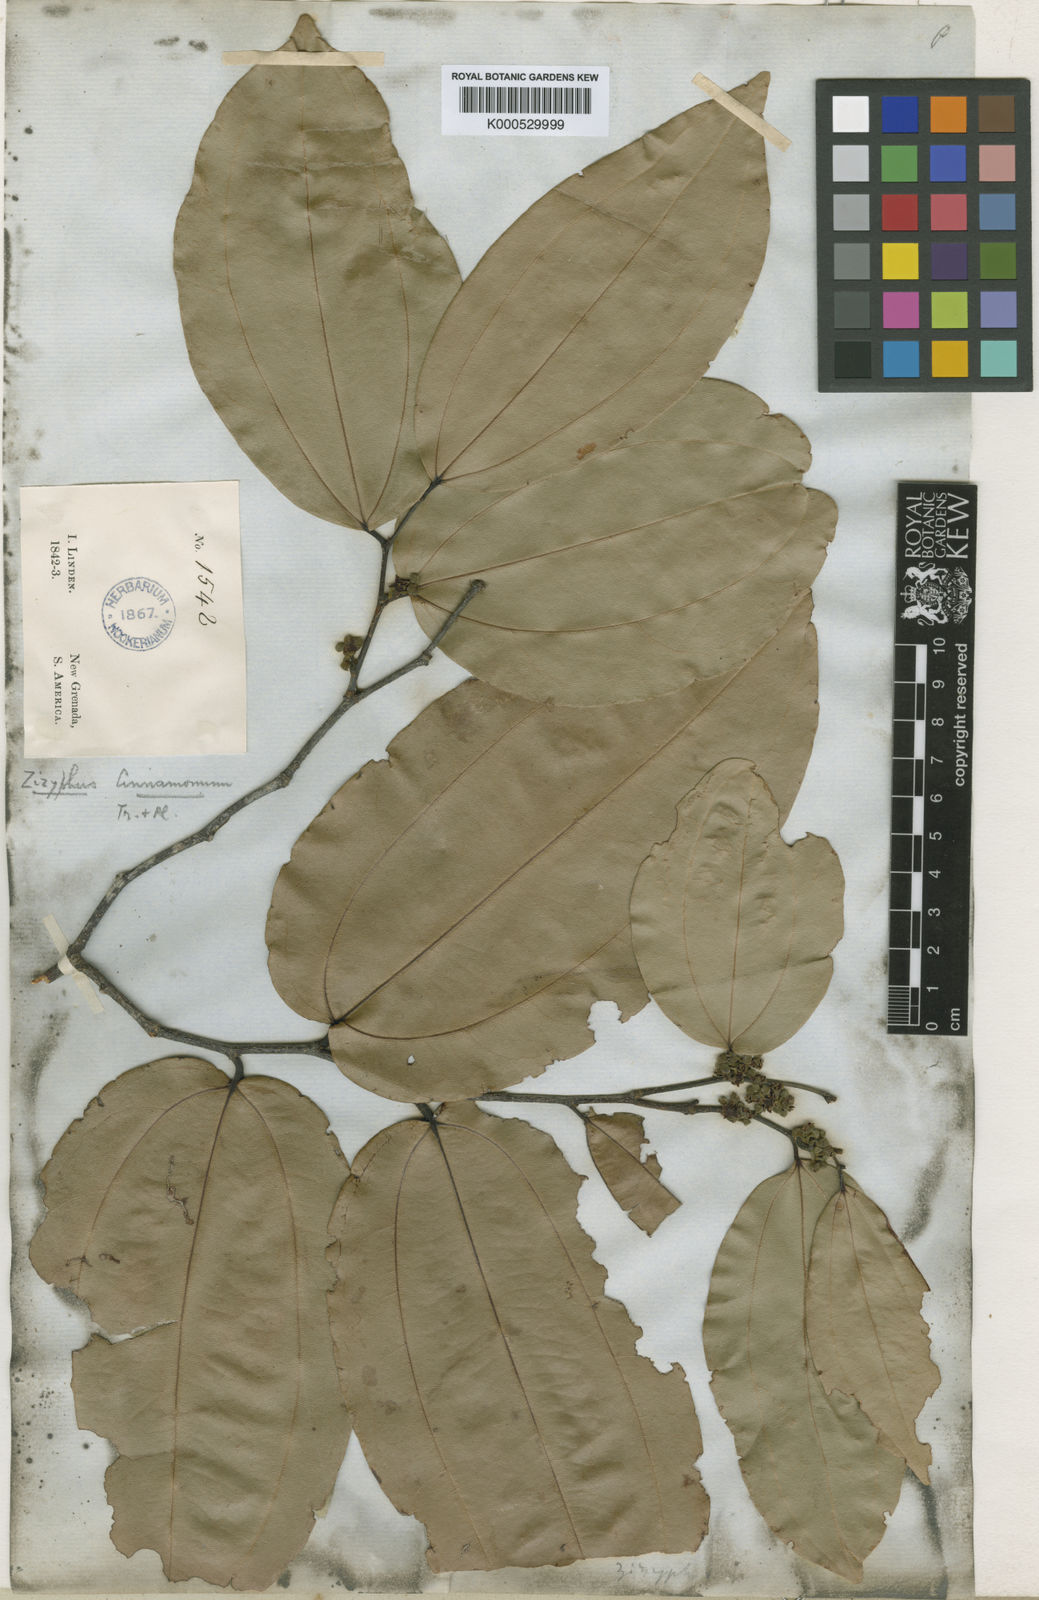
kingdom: Plantae
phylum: Tracheophyta
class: Magnoliopsida
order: Rosales
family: Rhamnaceae
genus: Sarcomphalus
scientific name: Sarcomphalus cinnamomum
